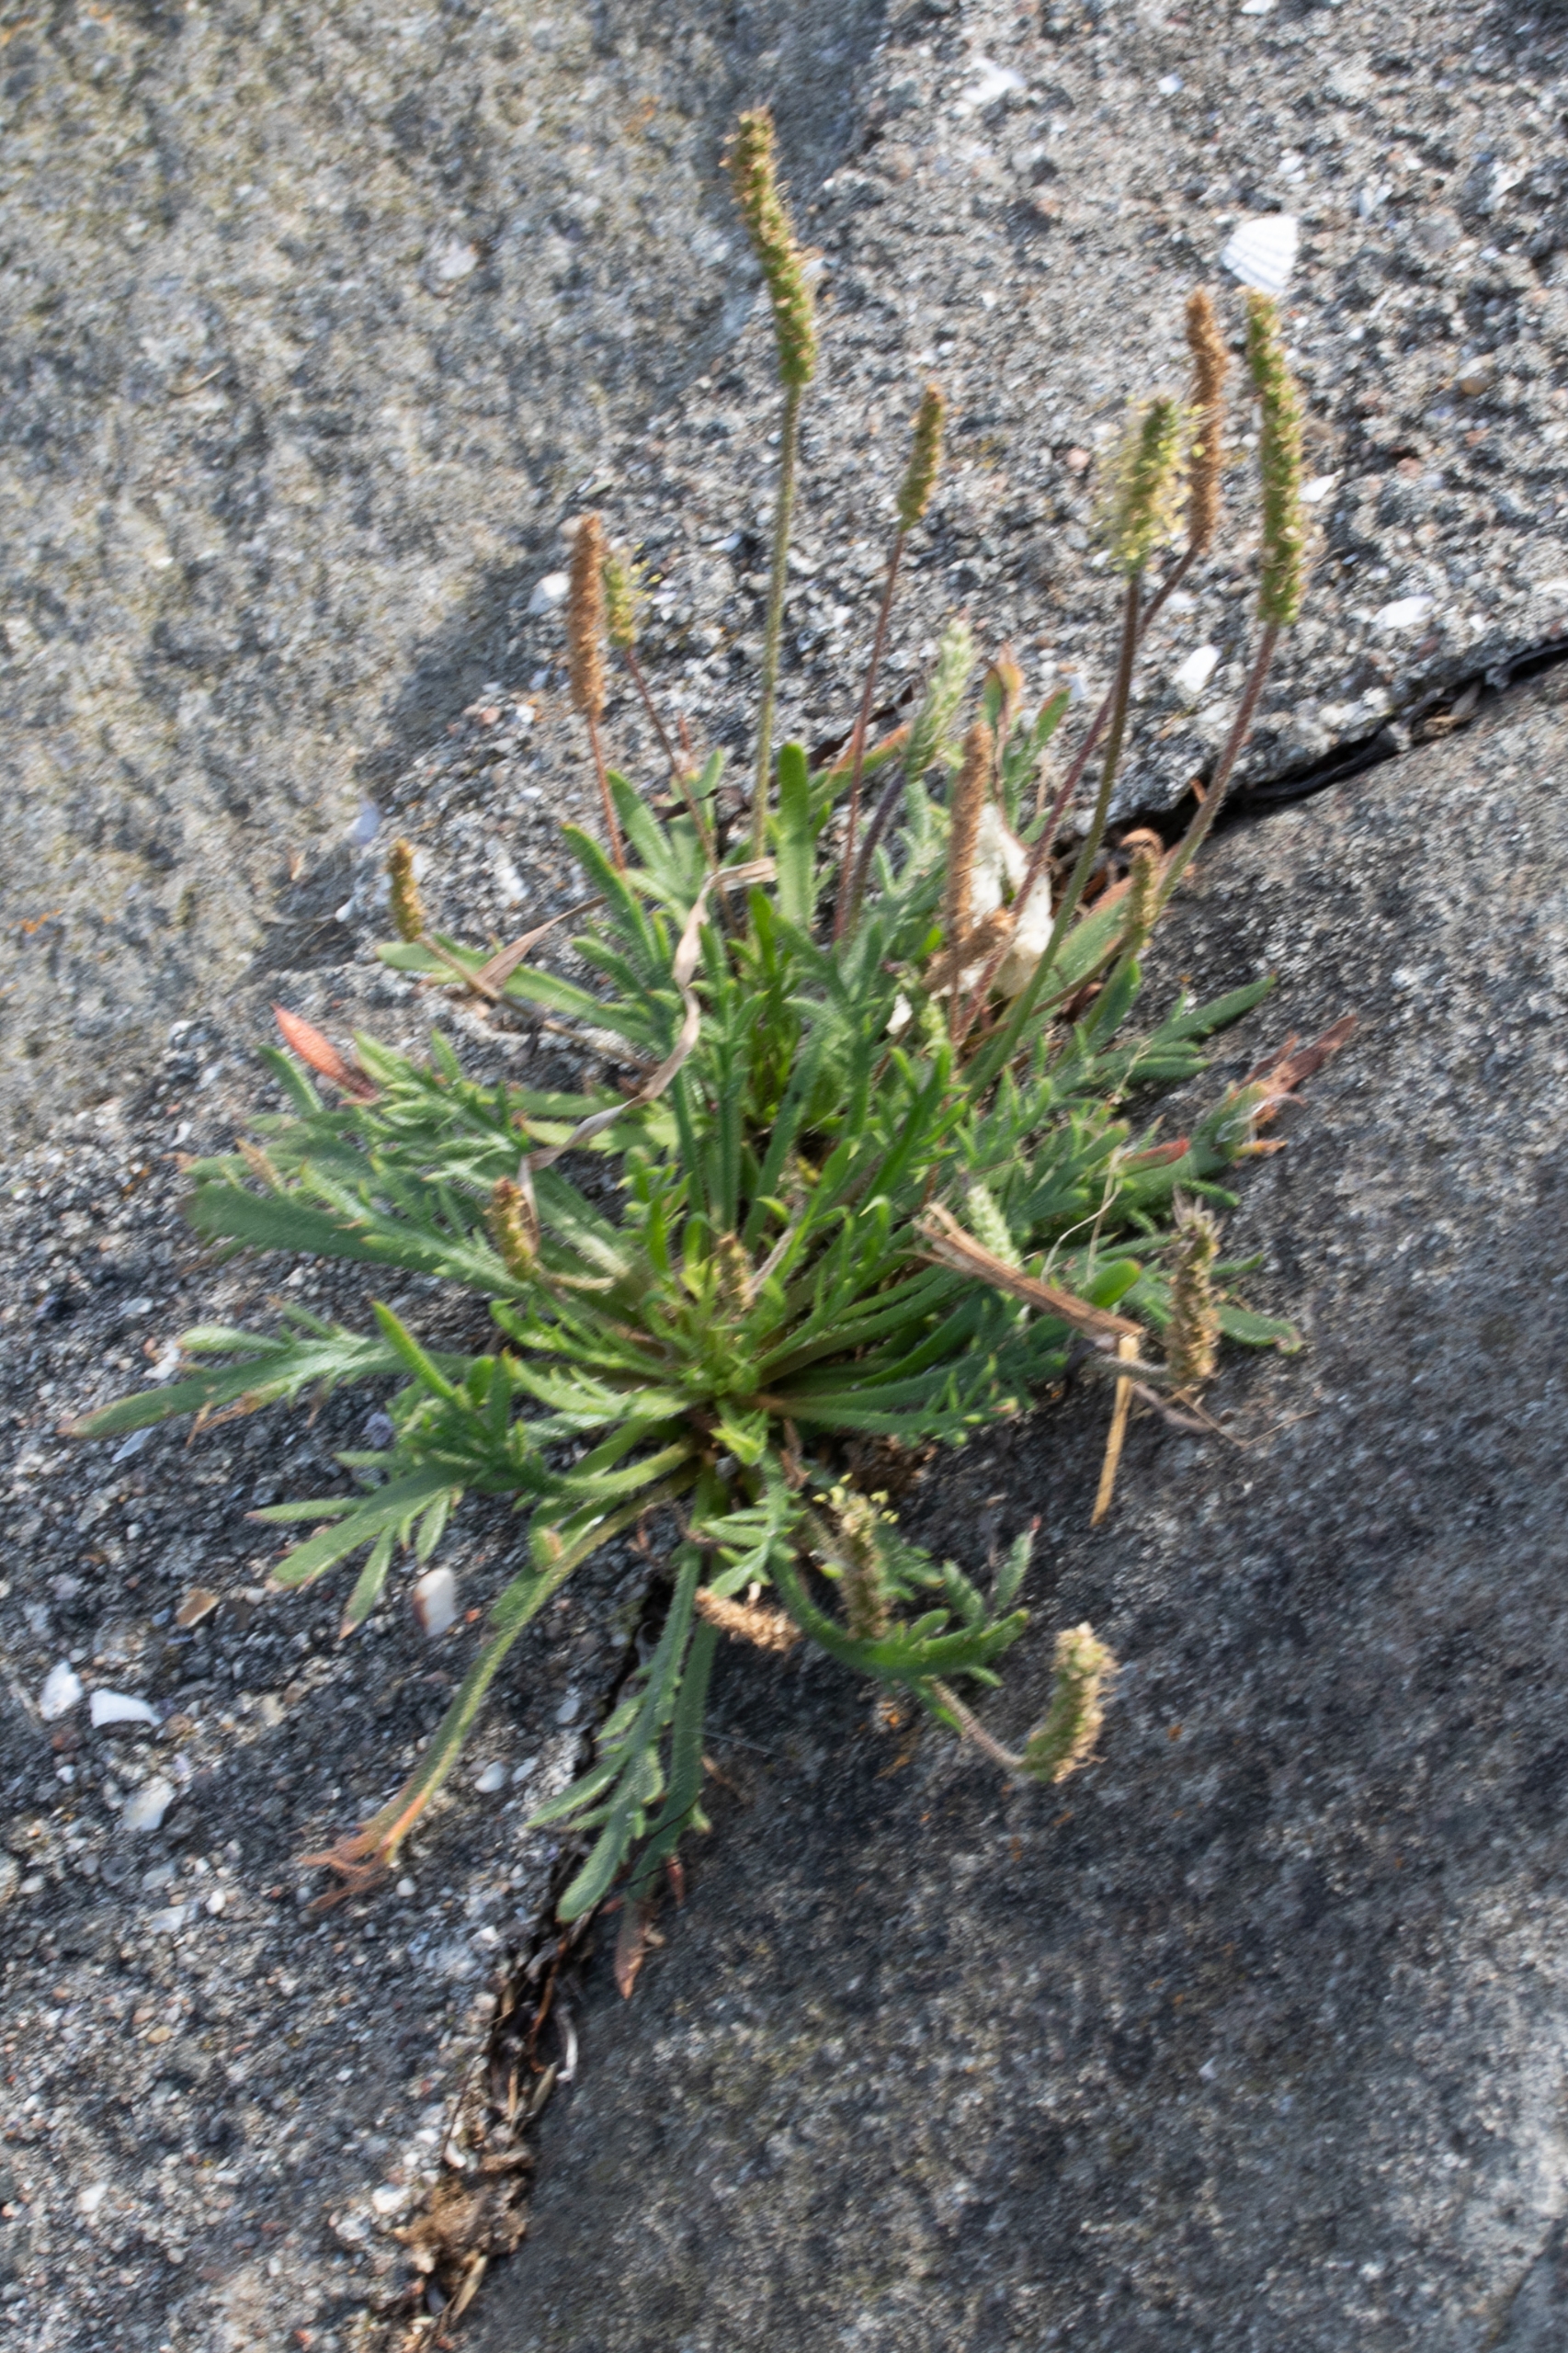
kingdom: Plantae
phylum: Tracheophyta
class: Magnoliopsida
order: Lamiales
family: Plantaginaceae
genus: Plantago
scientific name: Plantago coronopus
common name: Fliget vejbred
